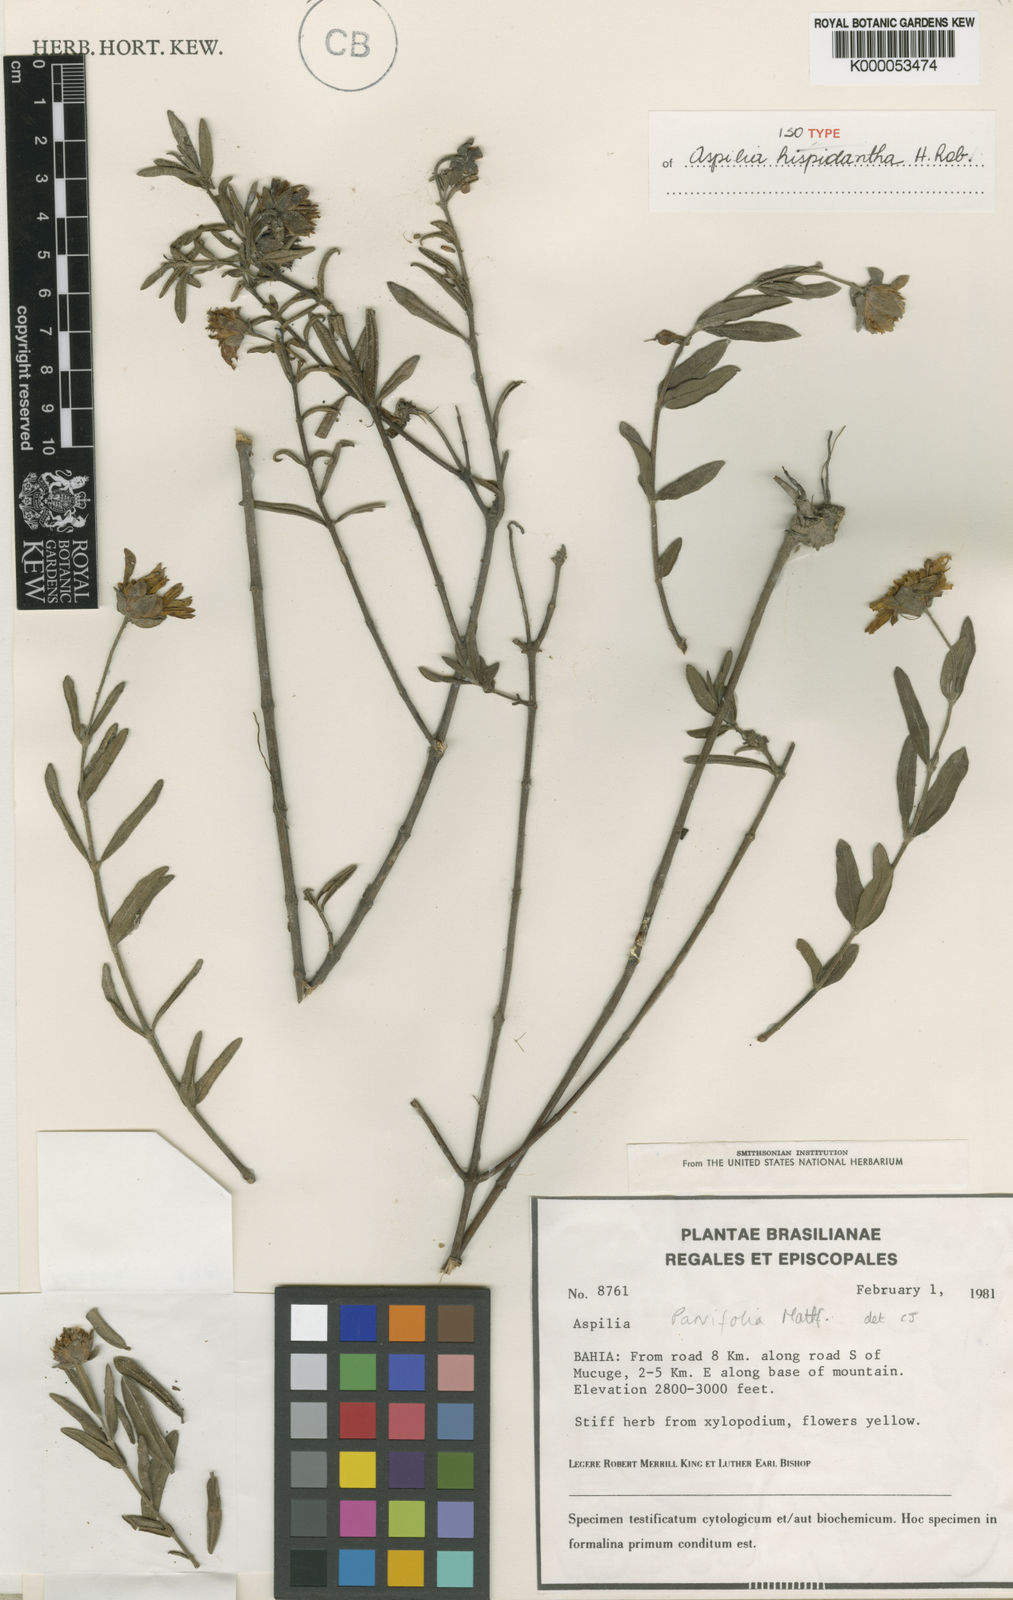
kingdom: Plantae
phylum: Tracheophyta
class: Magnoliopsida
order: Asterales
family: Asteraceae
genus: Wedelia
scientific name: Wedelia subalpestris
